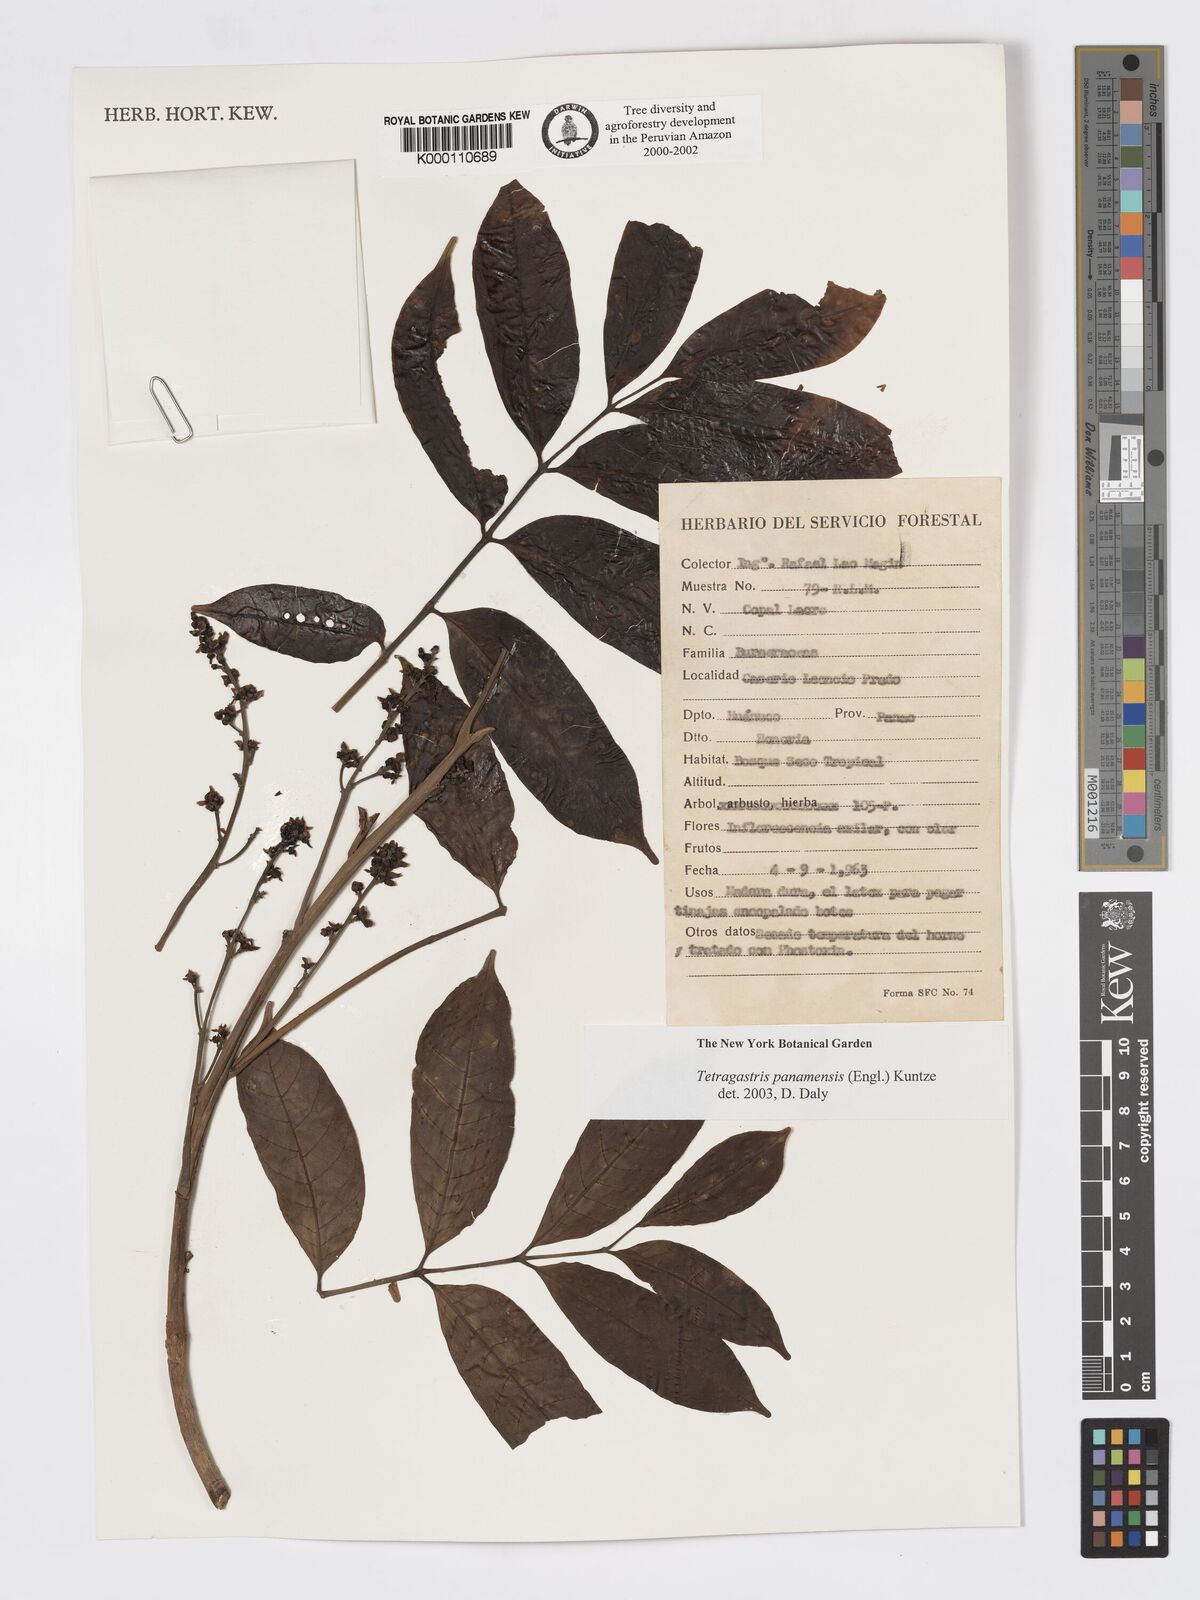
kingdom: Plantae
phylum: Tracheophyta
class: Magnoliopsida
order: Sapindales
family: Burseraceae
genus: Tetragastris
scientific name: Tetragastris panamensis
